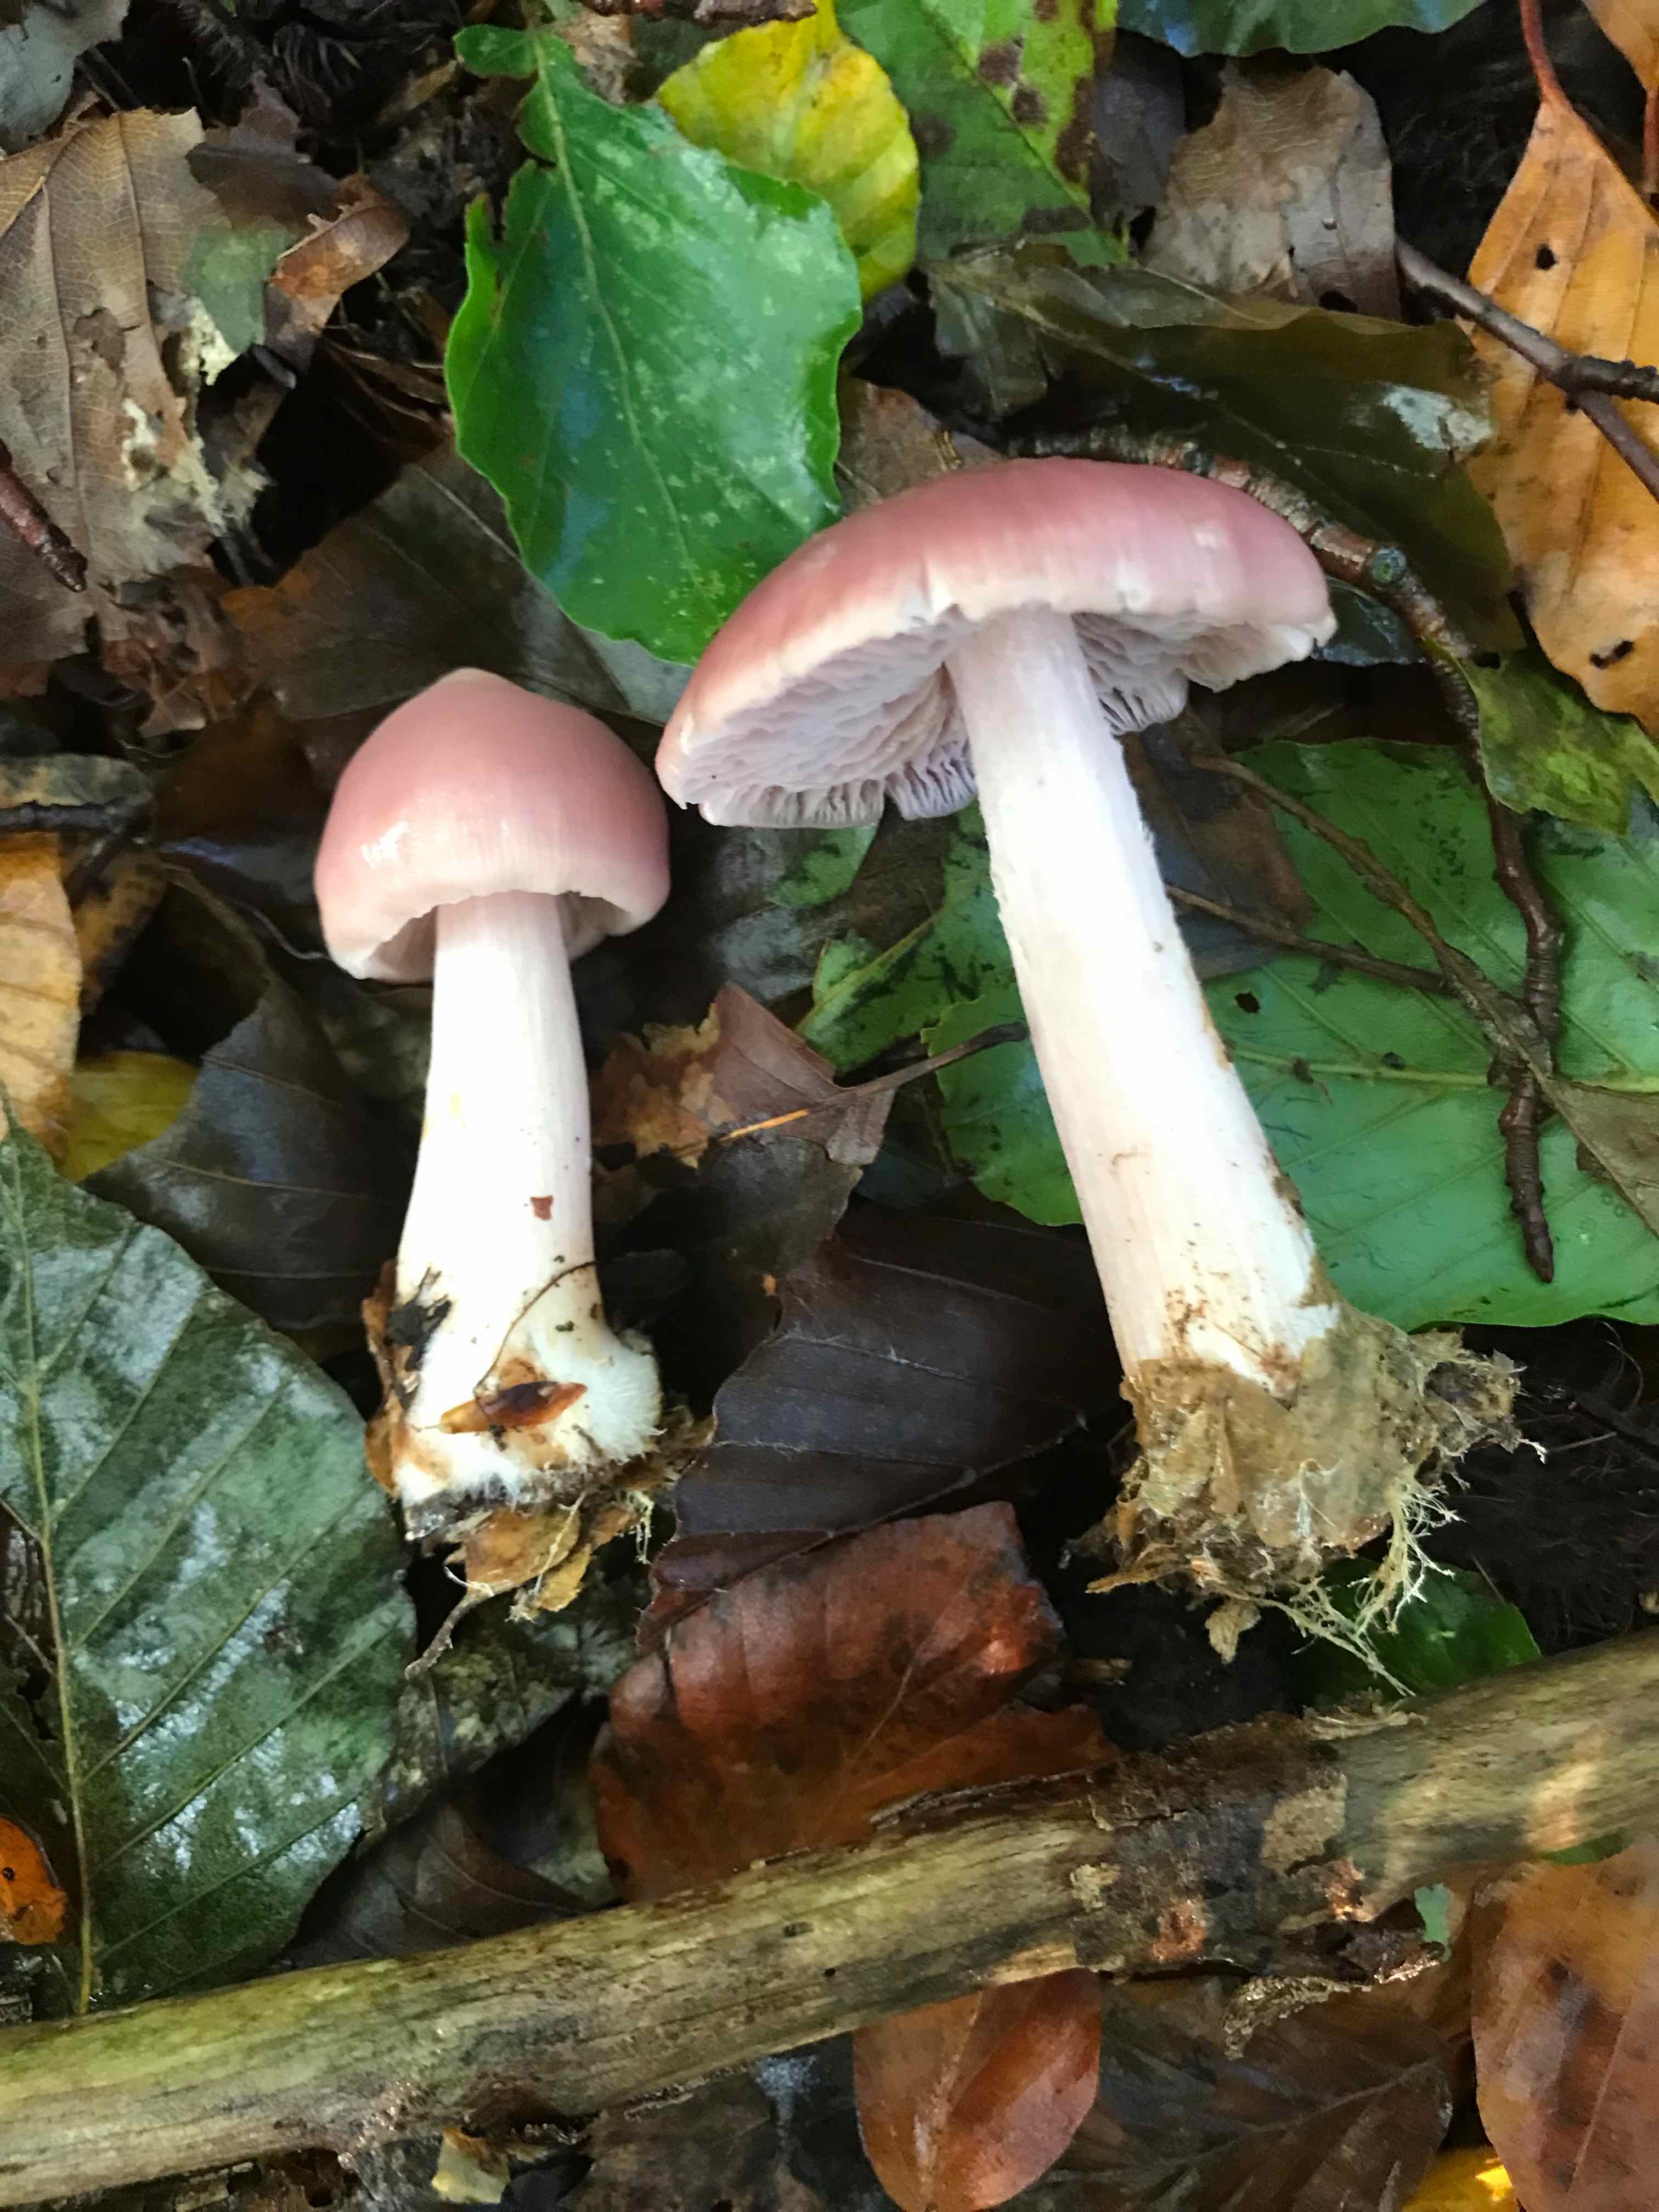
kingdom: Fungi
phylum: Basidiomycota
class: Agaricomycetes
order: Agaricales
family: Mycenaceae
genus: Mycena
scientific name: Mycena rosea
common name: rosa huesvamp
